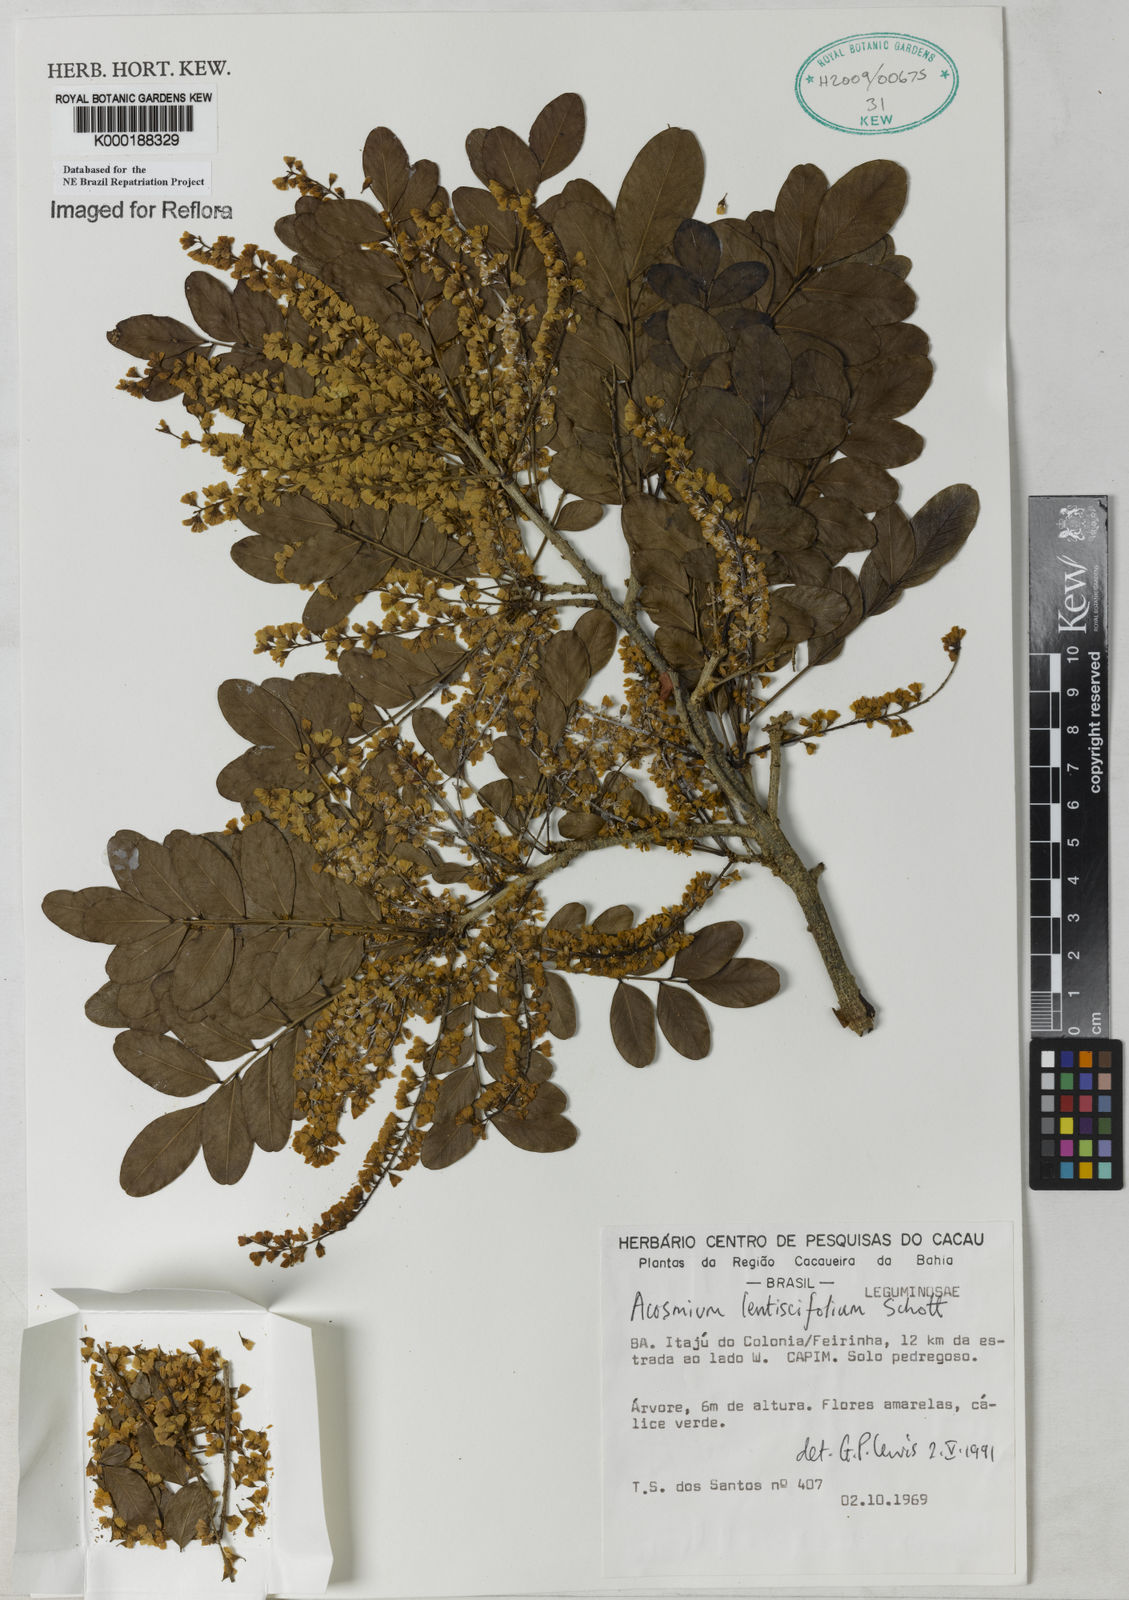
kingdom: Plantae
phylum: Tracheophyta
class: Magnoliopsida
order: Fabales
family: Fabaceae
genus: Acosmium
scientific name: Acosmium lentiscifolium
